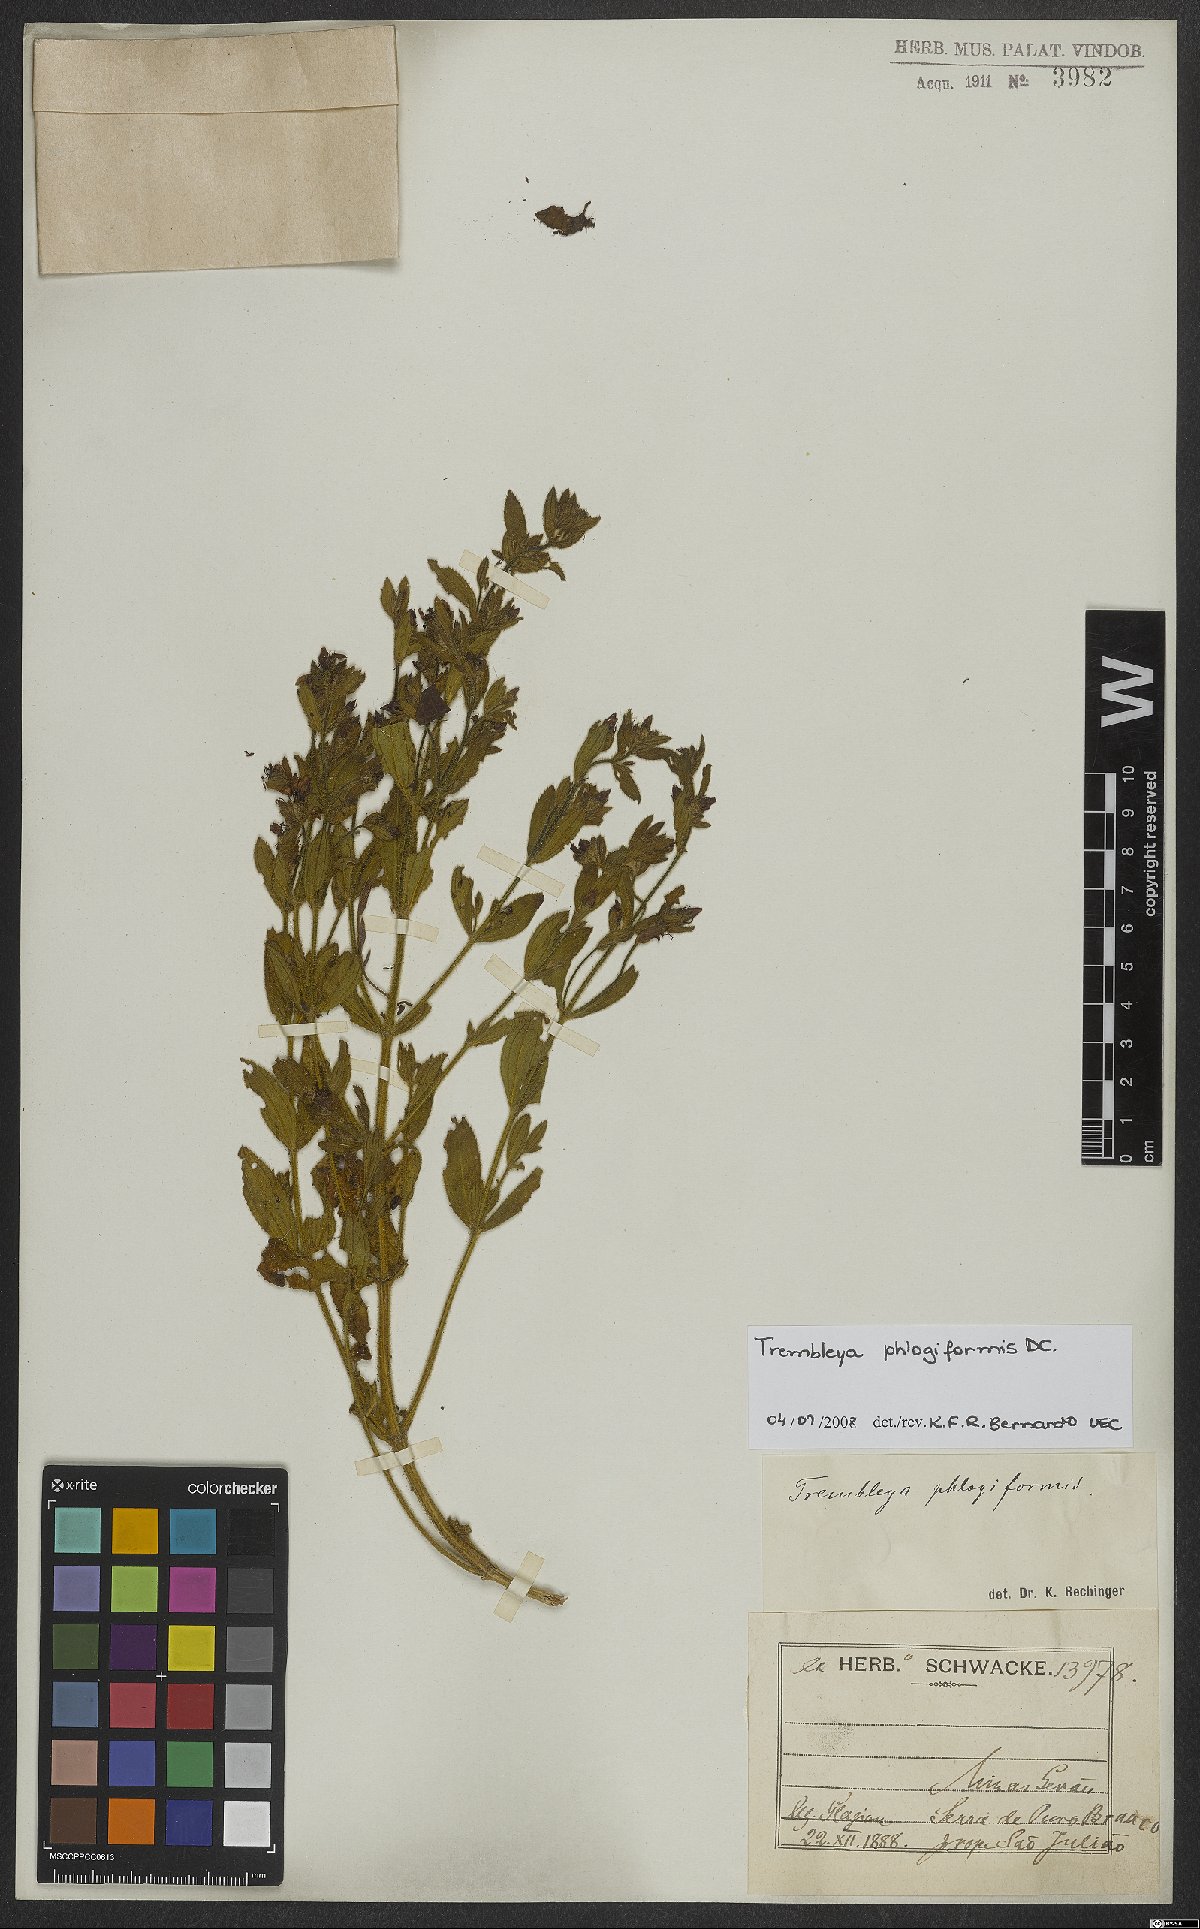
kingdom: Plantae
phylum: Tracheophyta
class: Magnoliopsida
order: Myrtales
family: Melastomataceae
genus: Microlicia
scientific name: Microlicia phlogiformis
